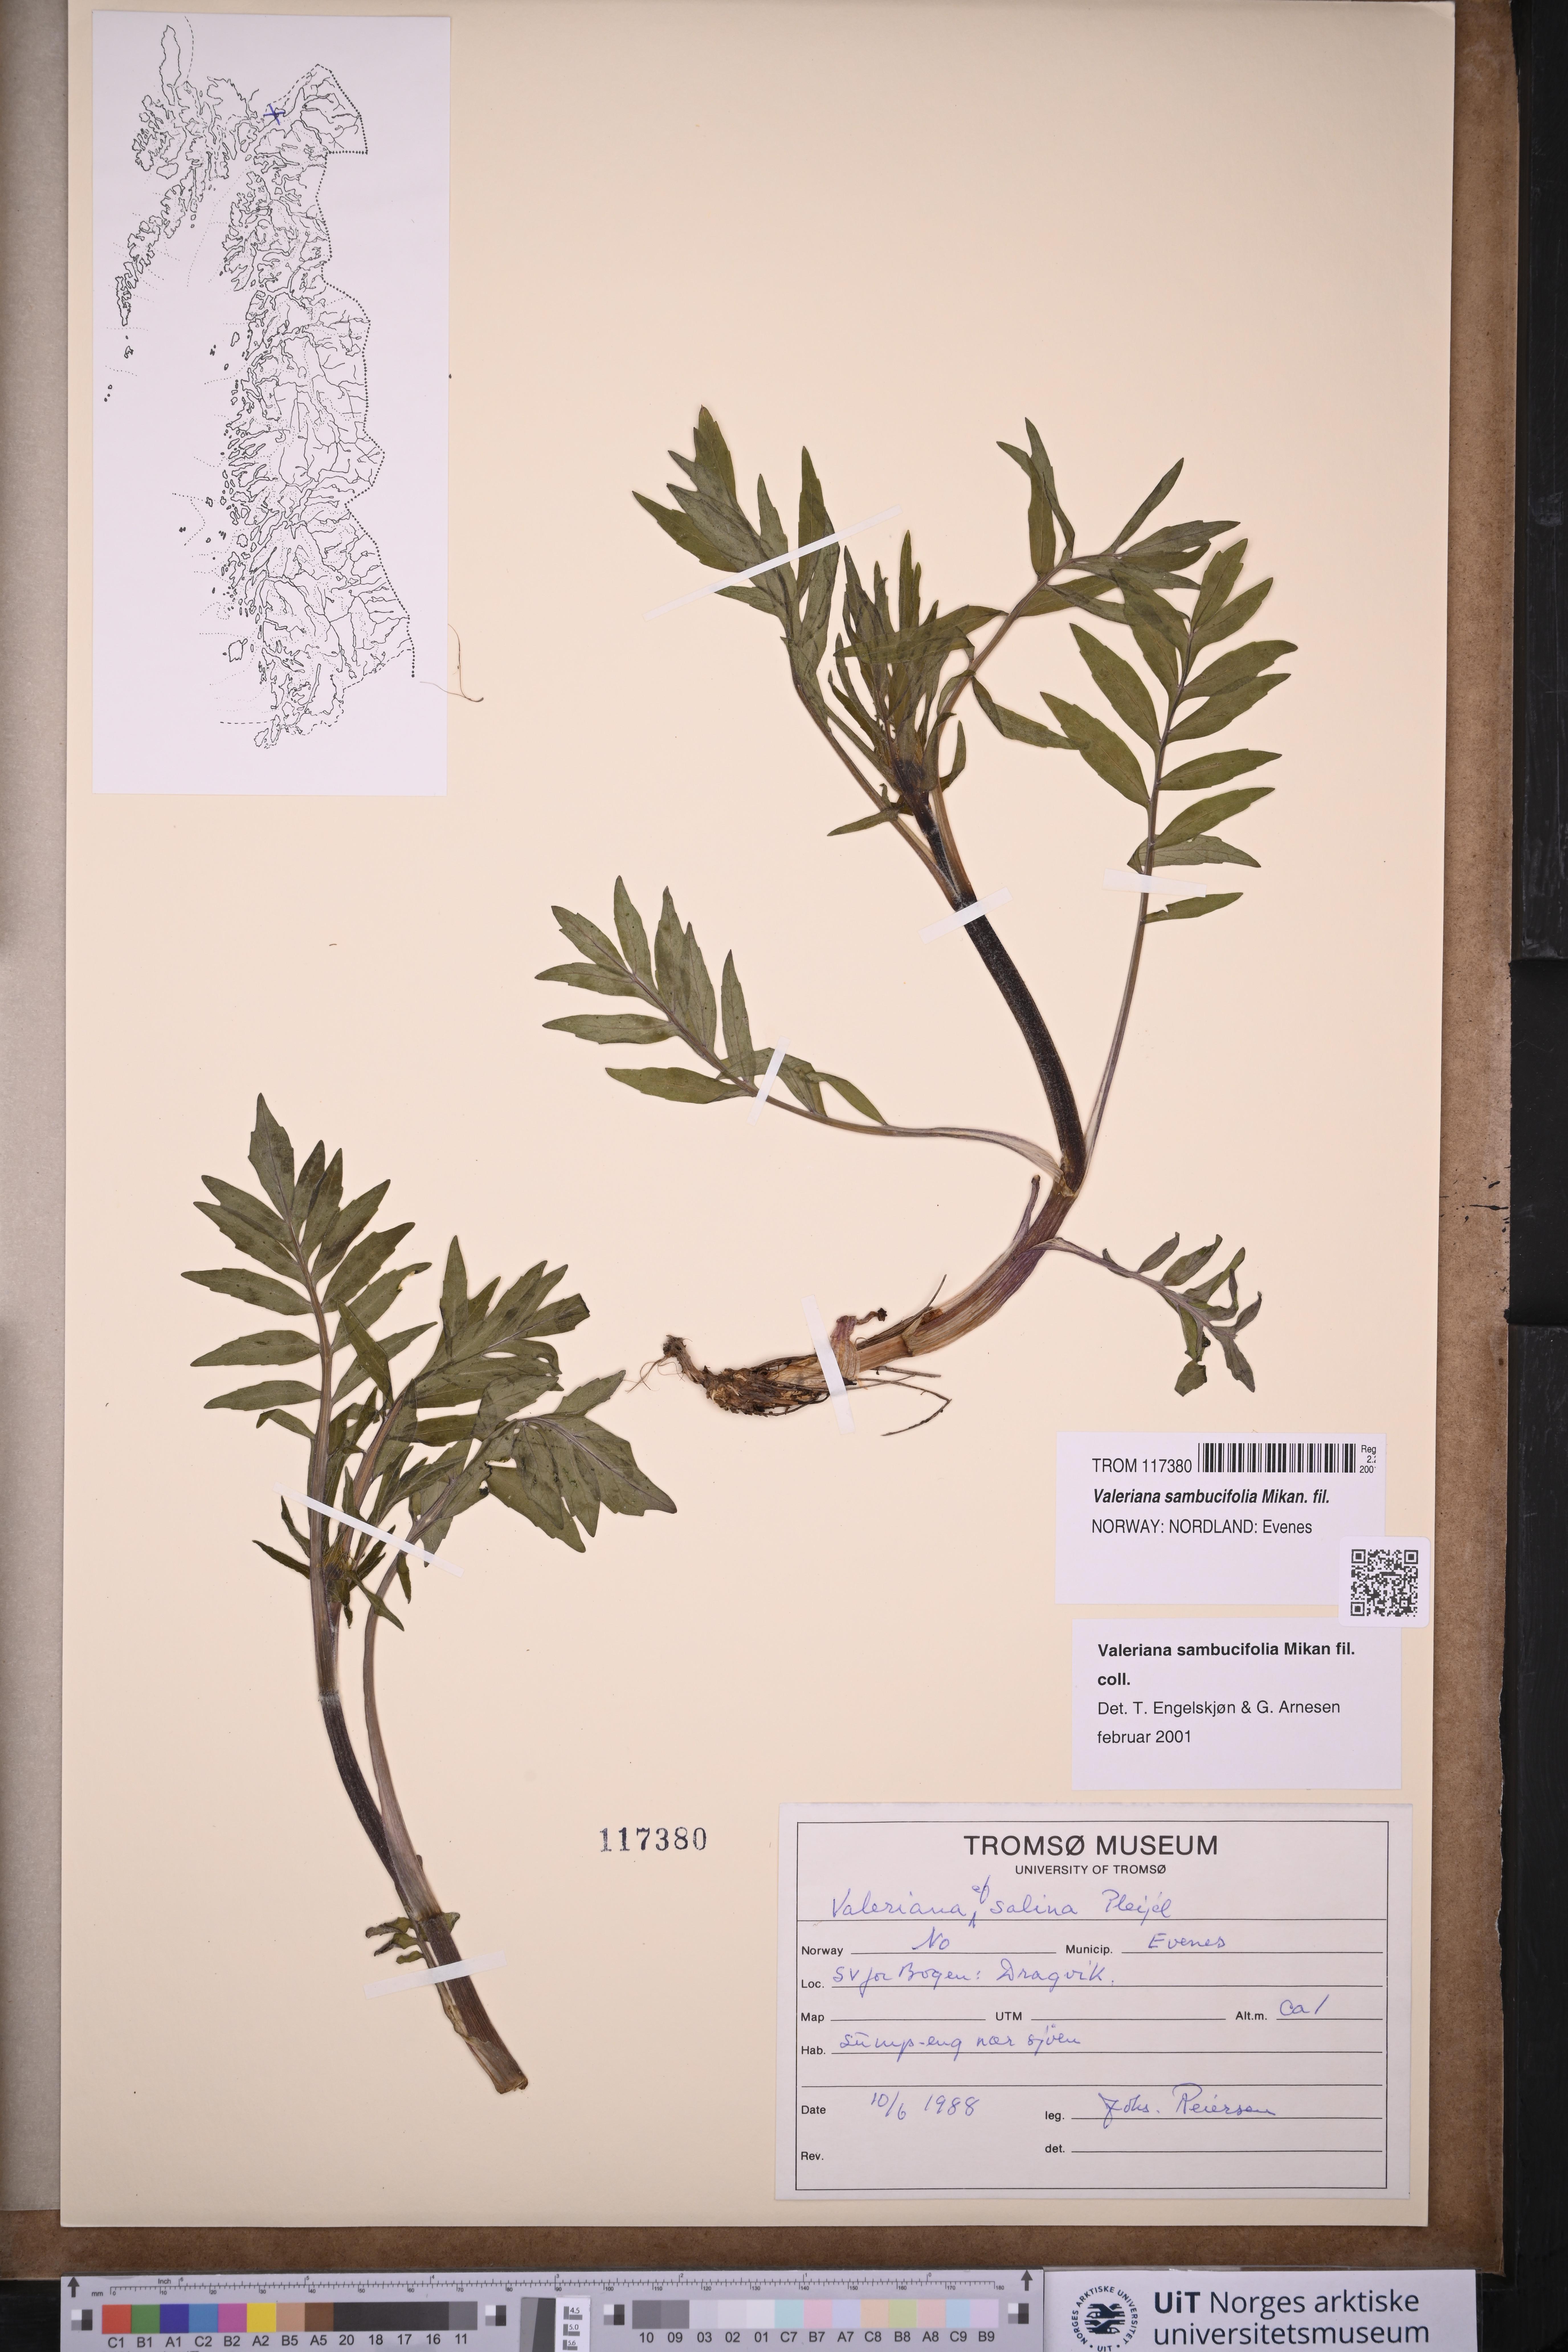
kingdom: Plantae
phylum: Tracheophyta
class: Magnoliopsida
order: Dipsacales
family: Caprifoliaceae
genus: Valeriana
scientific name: Valeriana excelsa
